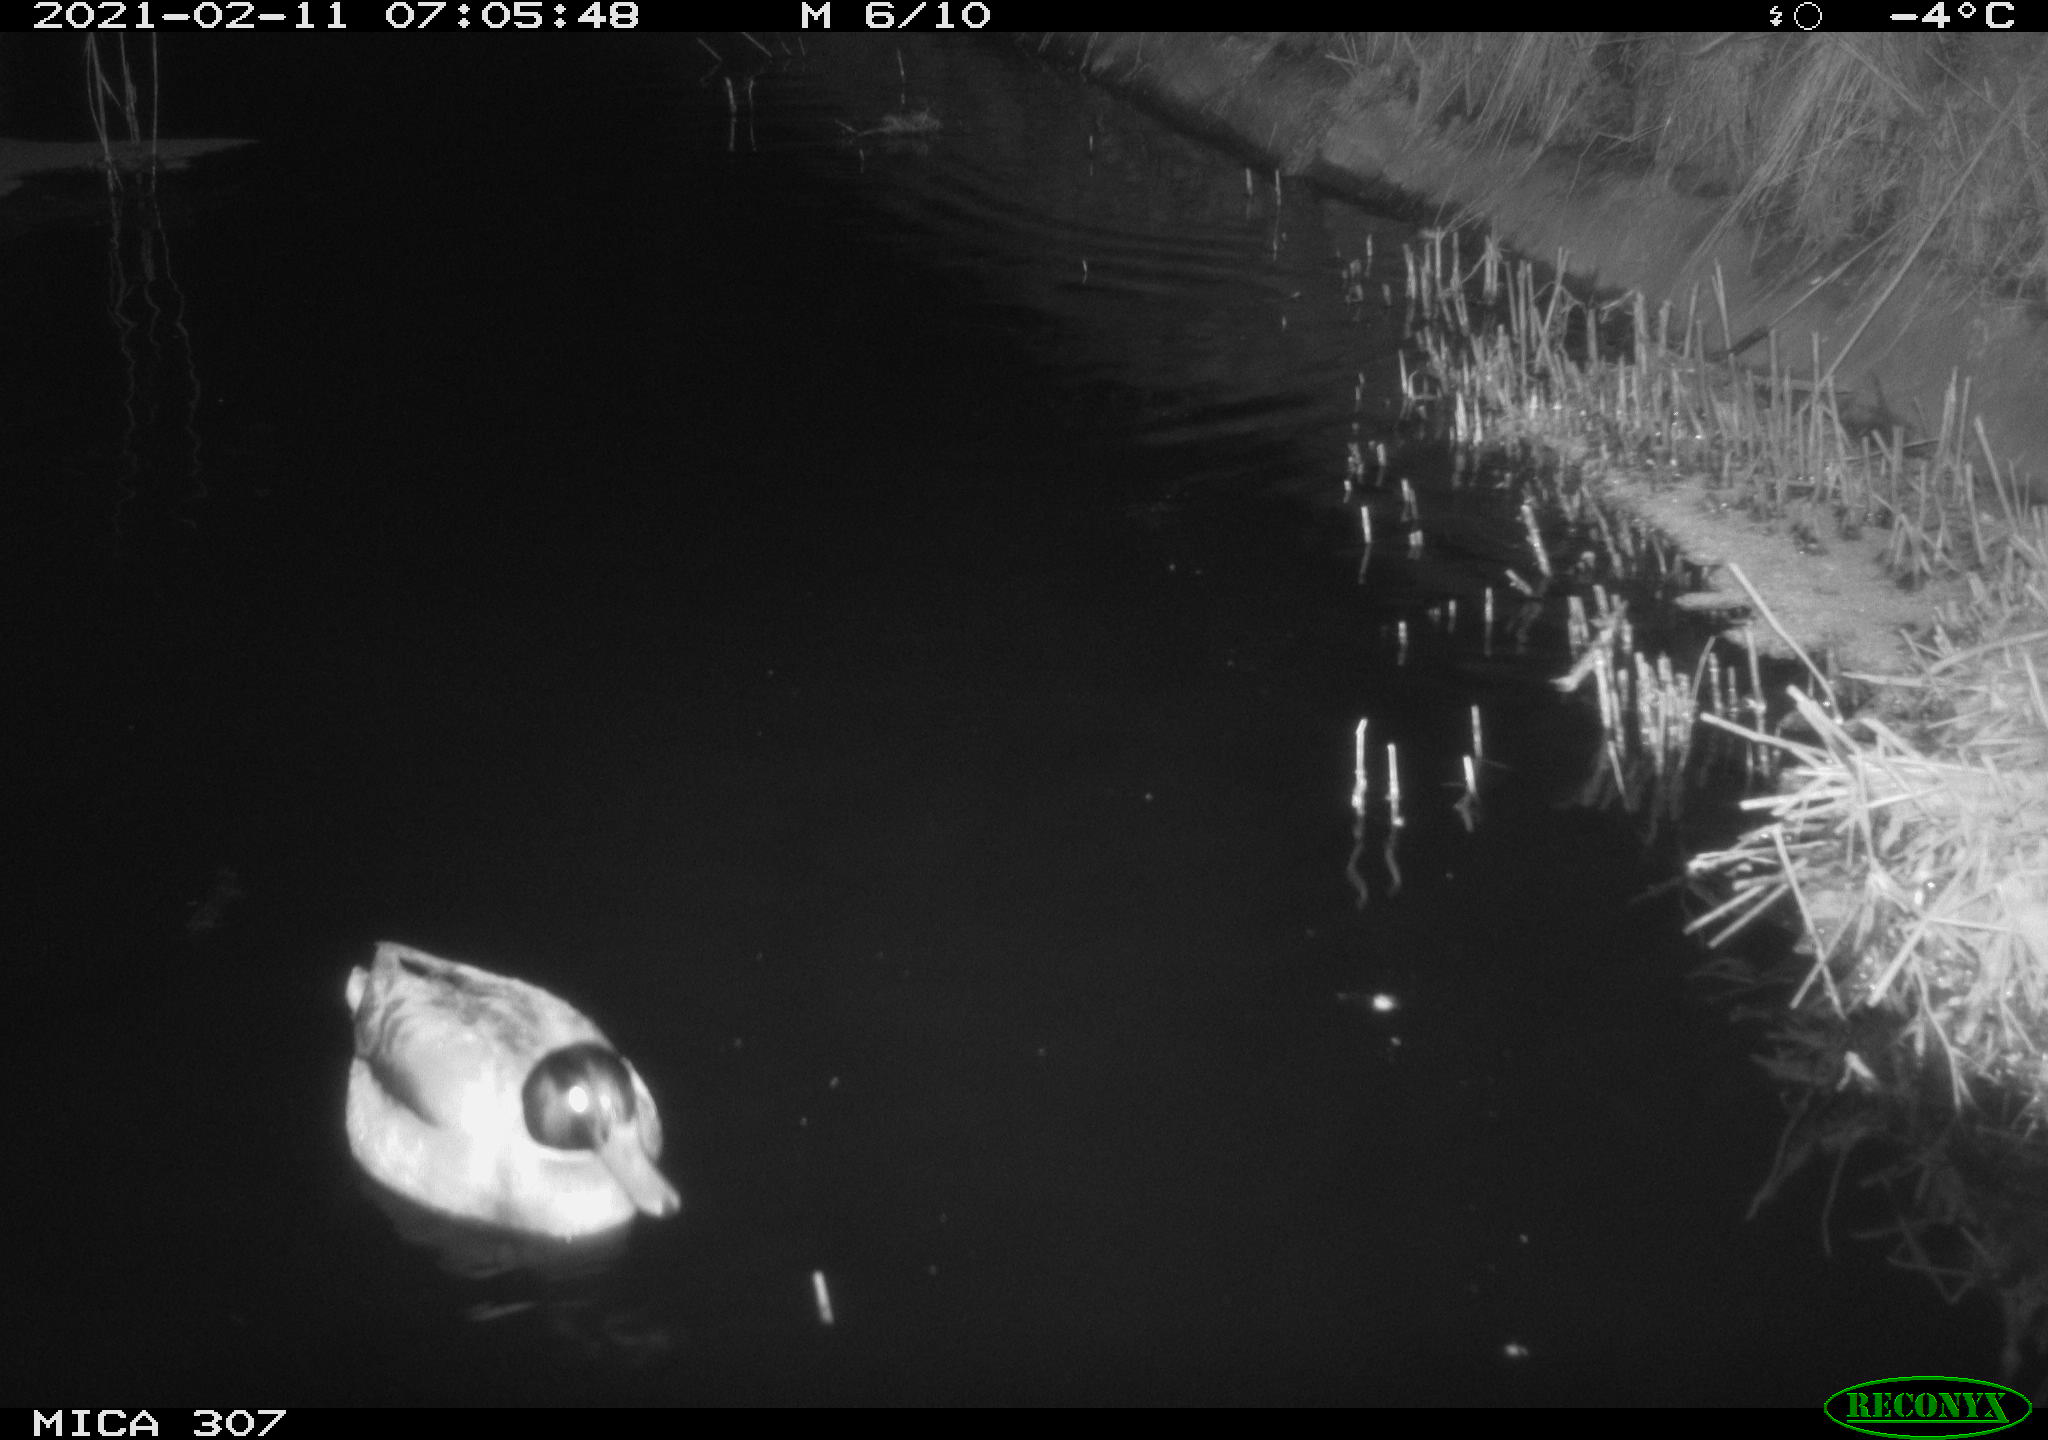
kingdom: Animalia
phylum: Chordata
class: Aves
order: Anseriformes
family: Anatidae
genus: Anas
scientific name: Anas platyrhynchos
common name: Mallard
